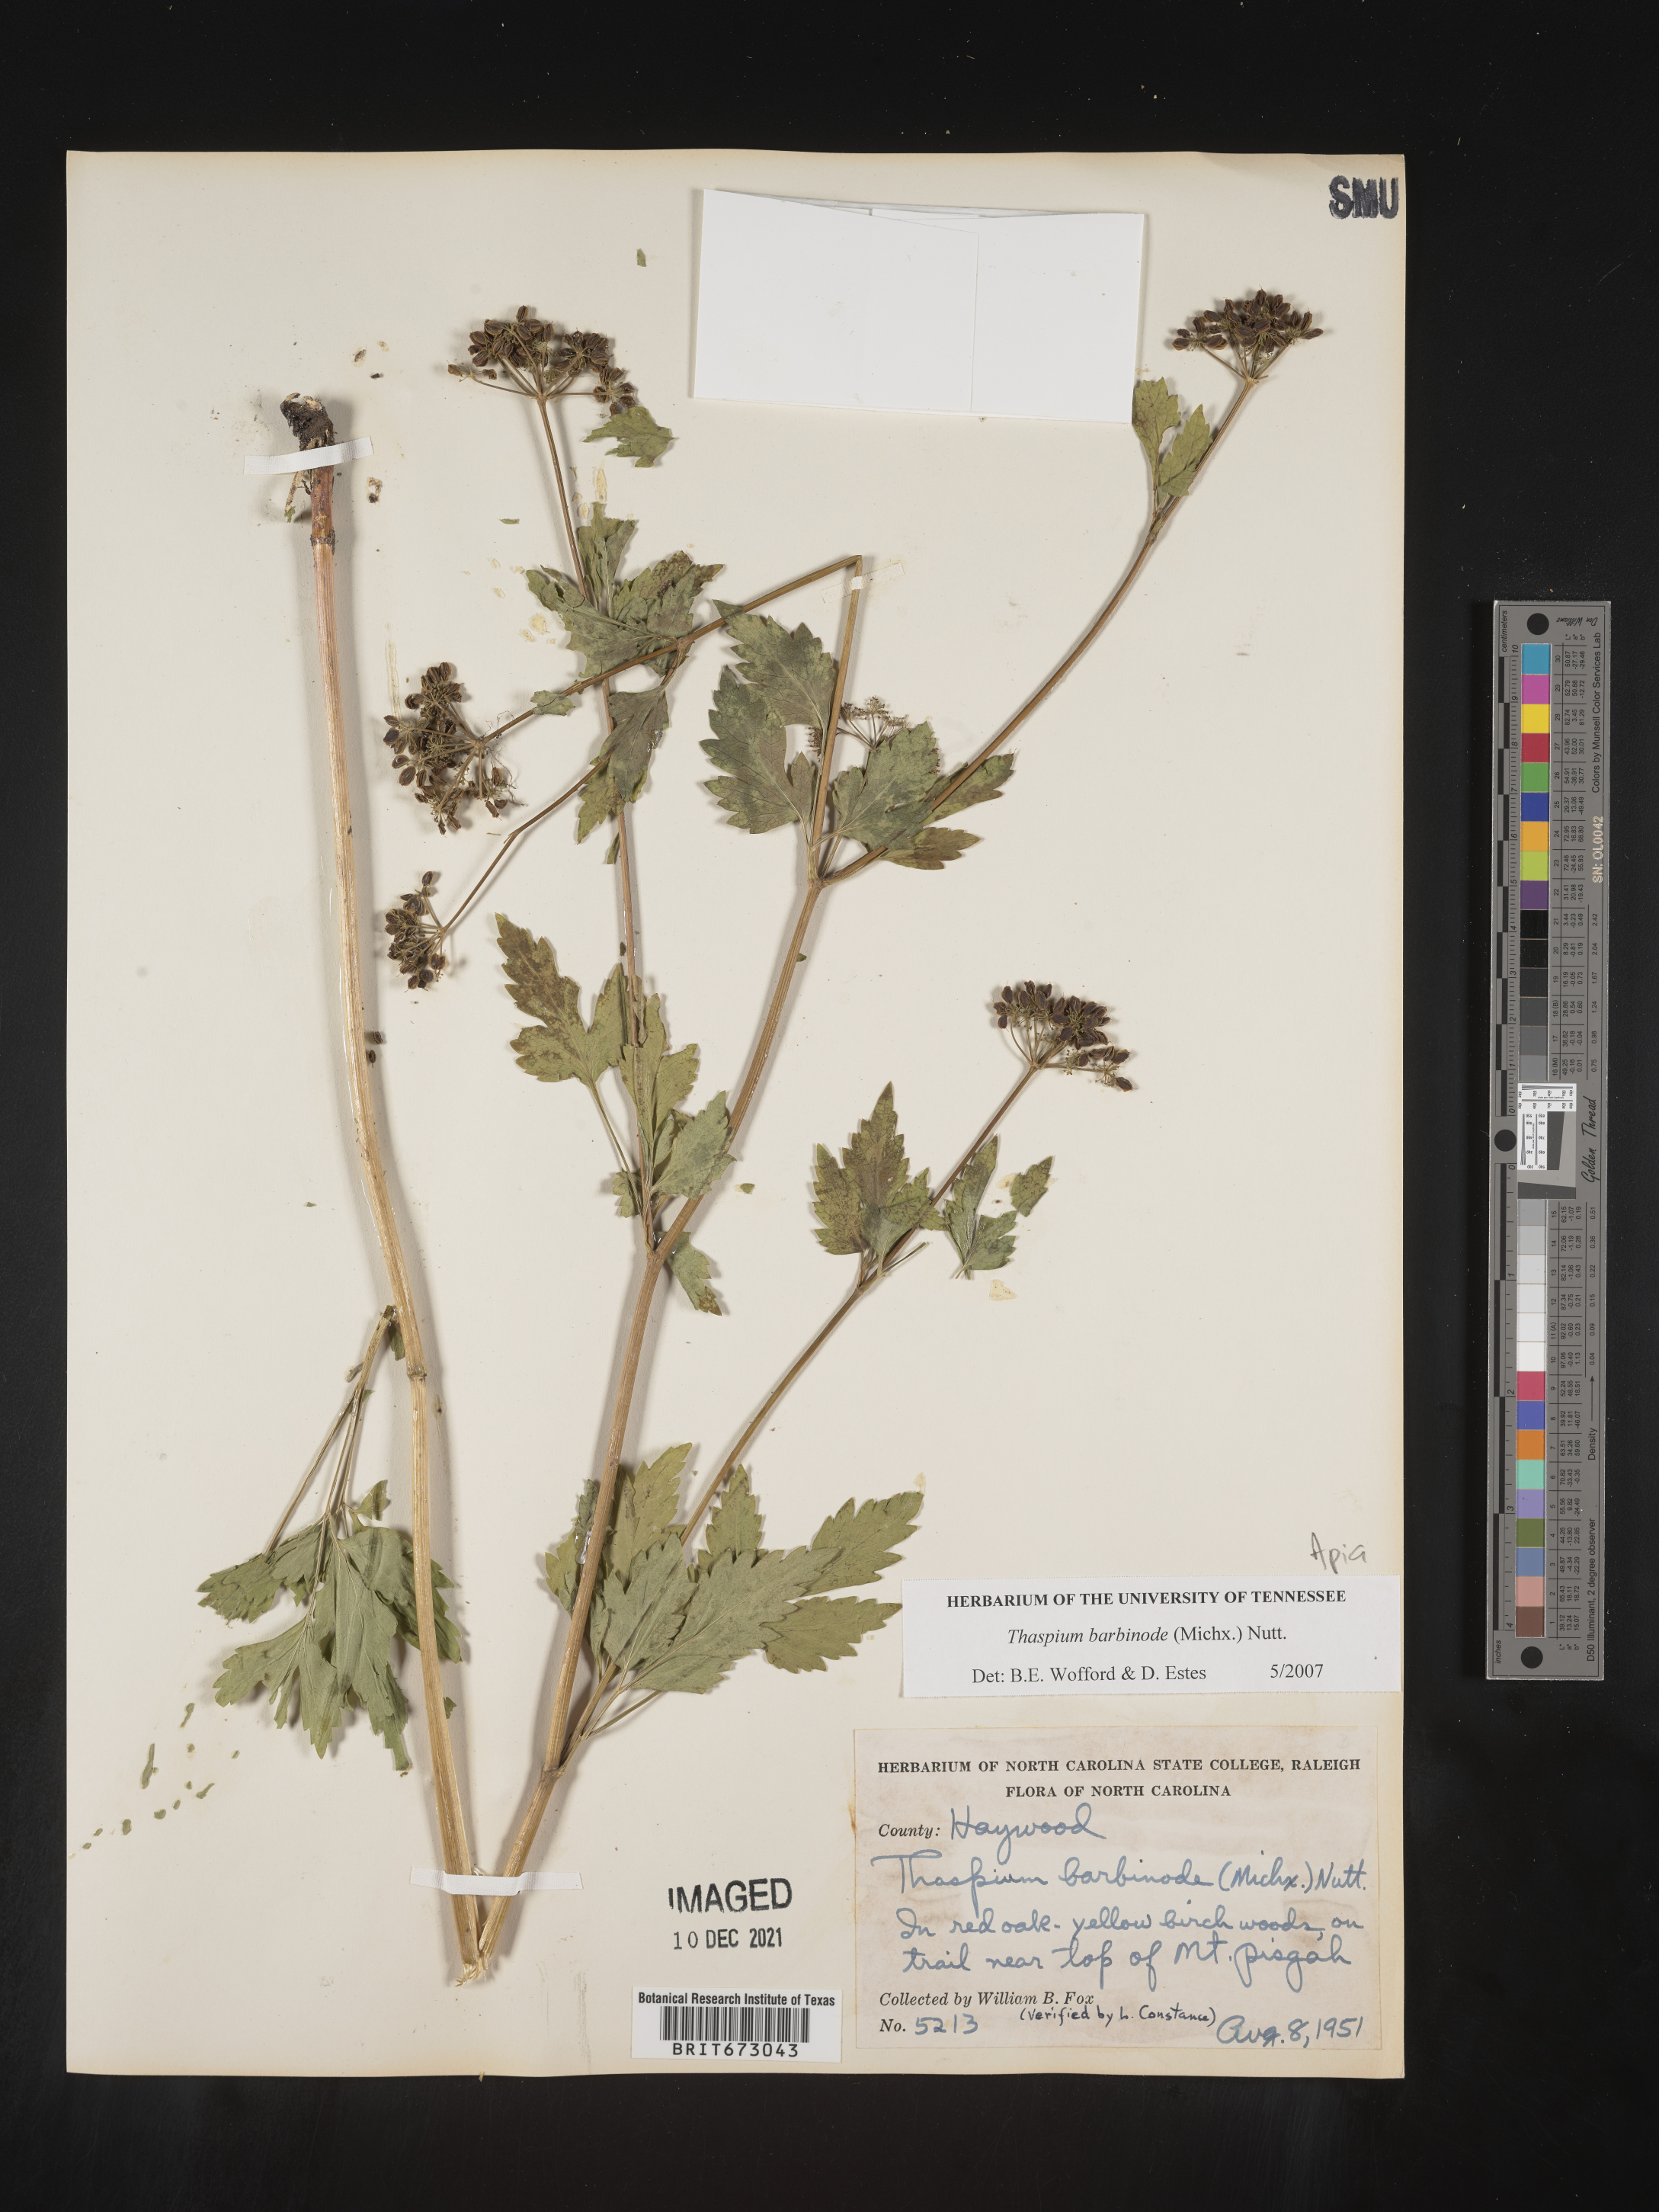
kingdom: Plantae
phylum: Tracheophyta
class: Magnoliopsida
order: Apiales
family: Apiaceae
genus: Thaspium
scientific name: Thaspium barbinode
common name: Bearded meadow-parsnip
